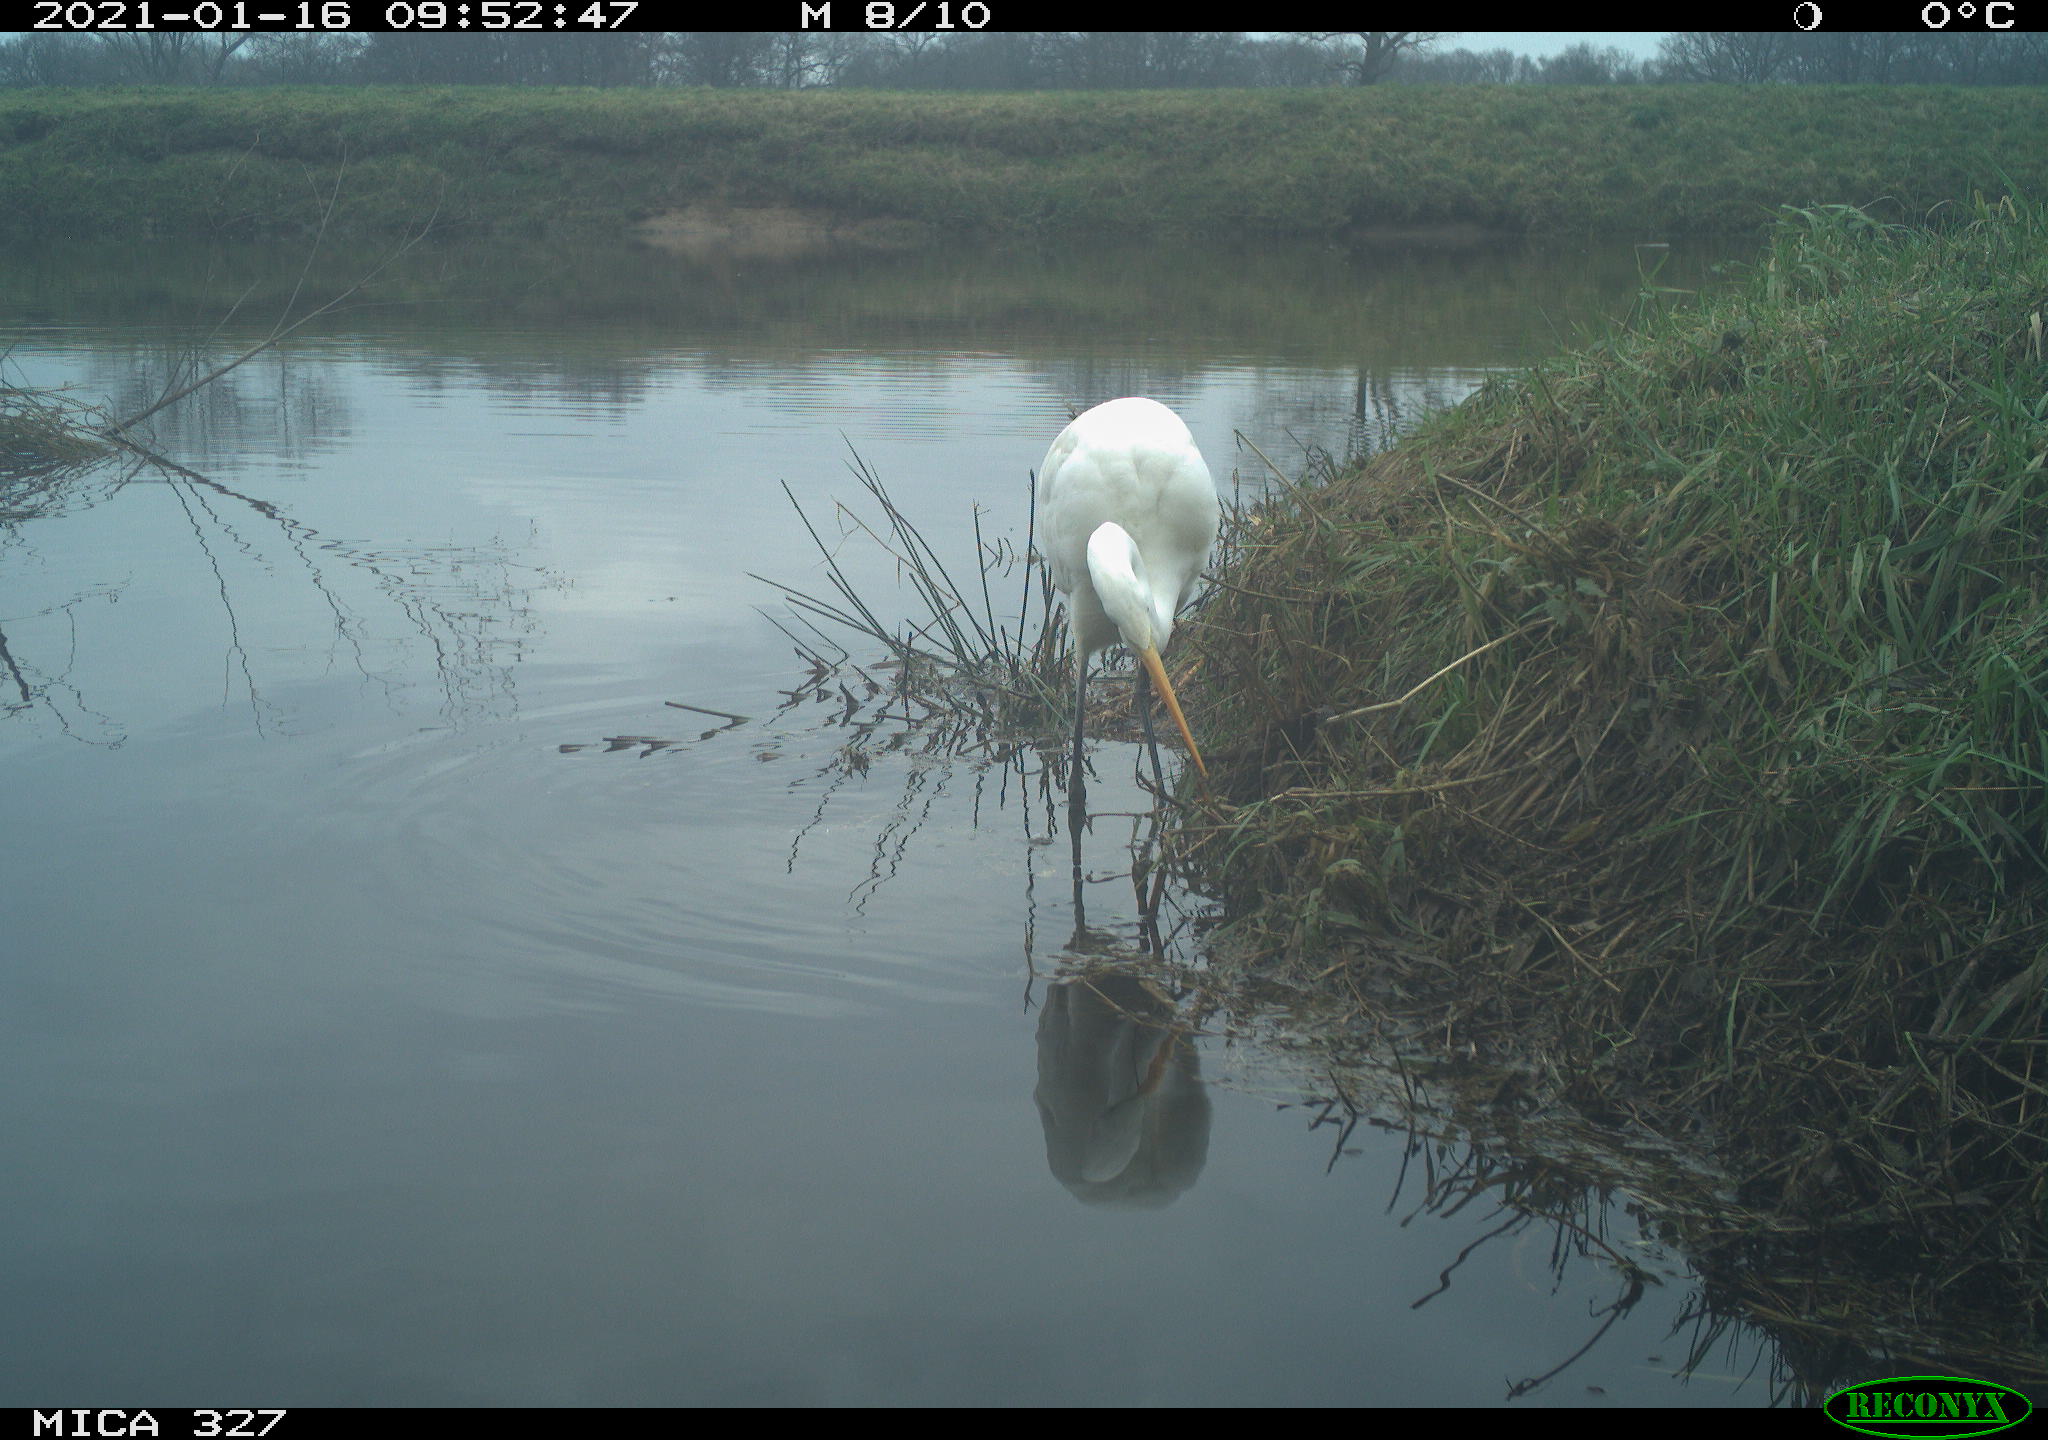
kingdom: Animalia
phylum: Chordata
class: Aves
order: Pelecaniformes
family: Ardeidae
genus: Ardea
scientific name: Ardea alba
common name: Great egret
